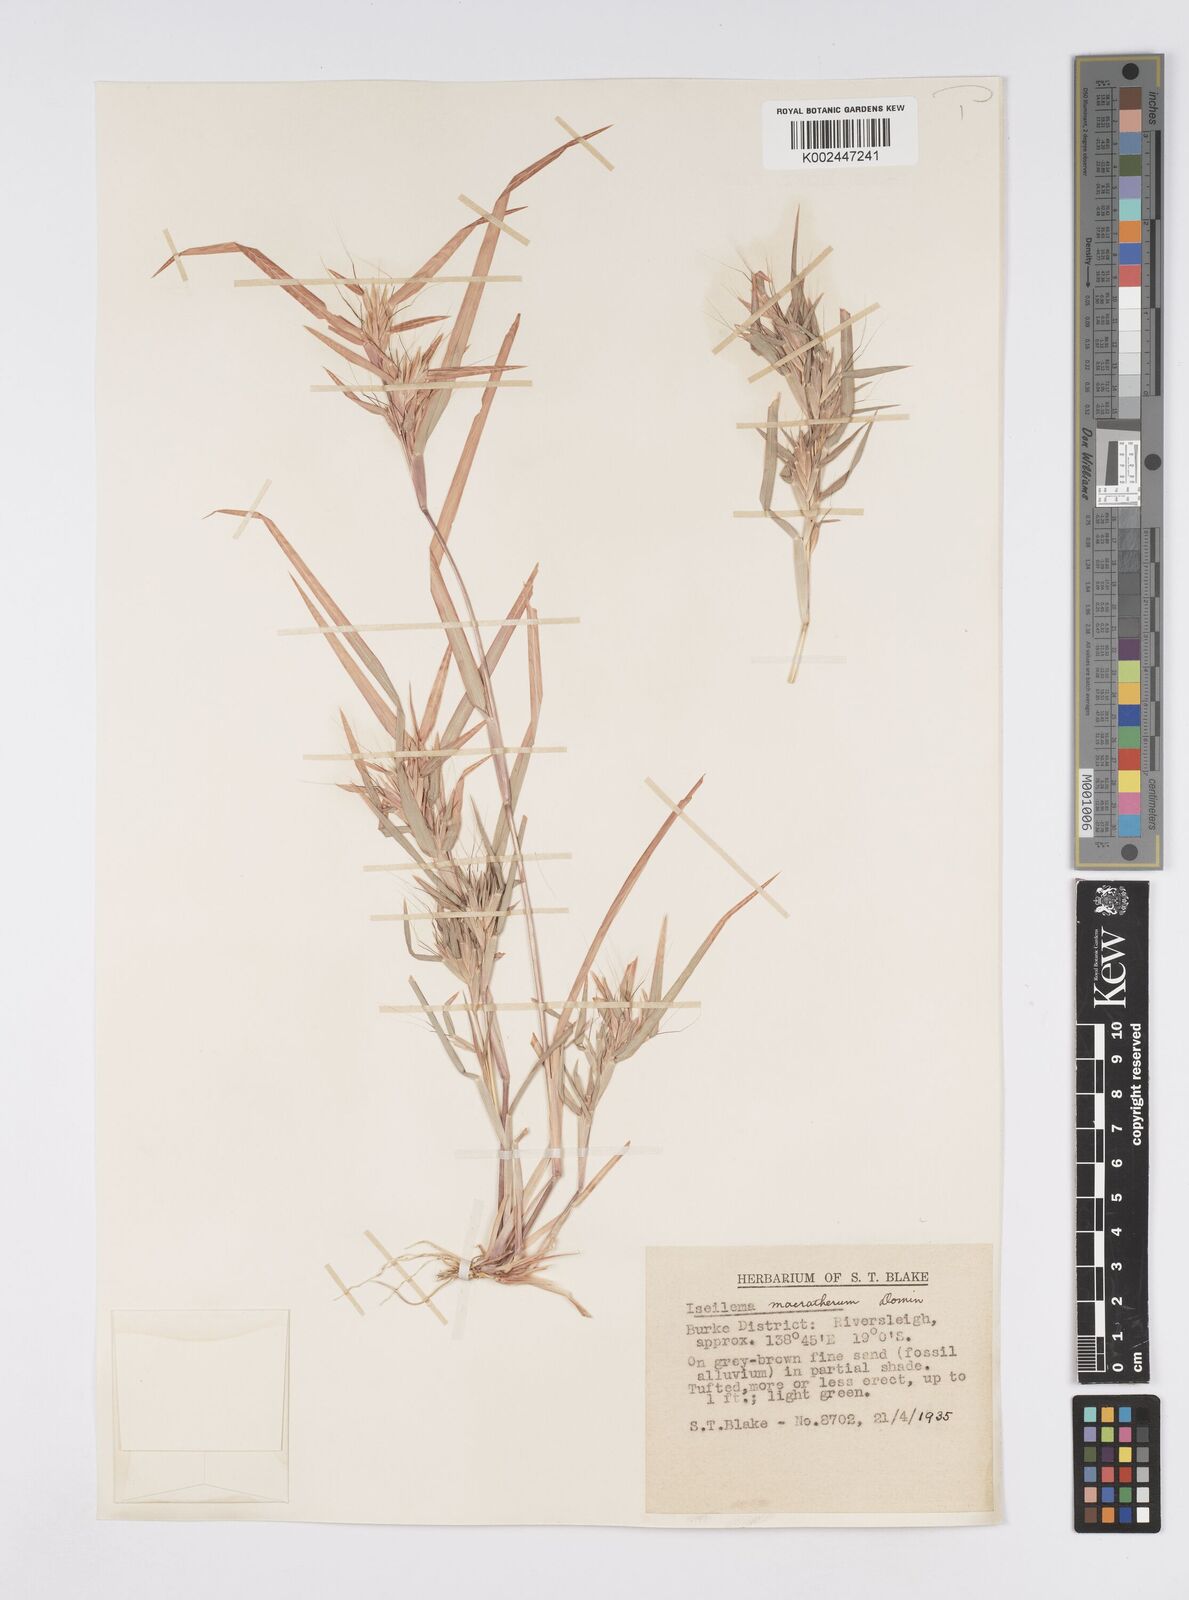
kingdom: Plantae
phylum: Tracheophyta
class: Liliopsida
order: Poales
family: Poaceae
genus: Iseilema
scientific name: Iseilema macratherum
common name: Bull flinders grass
